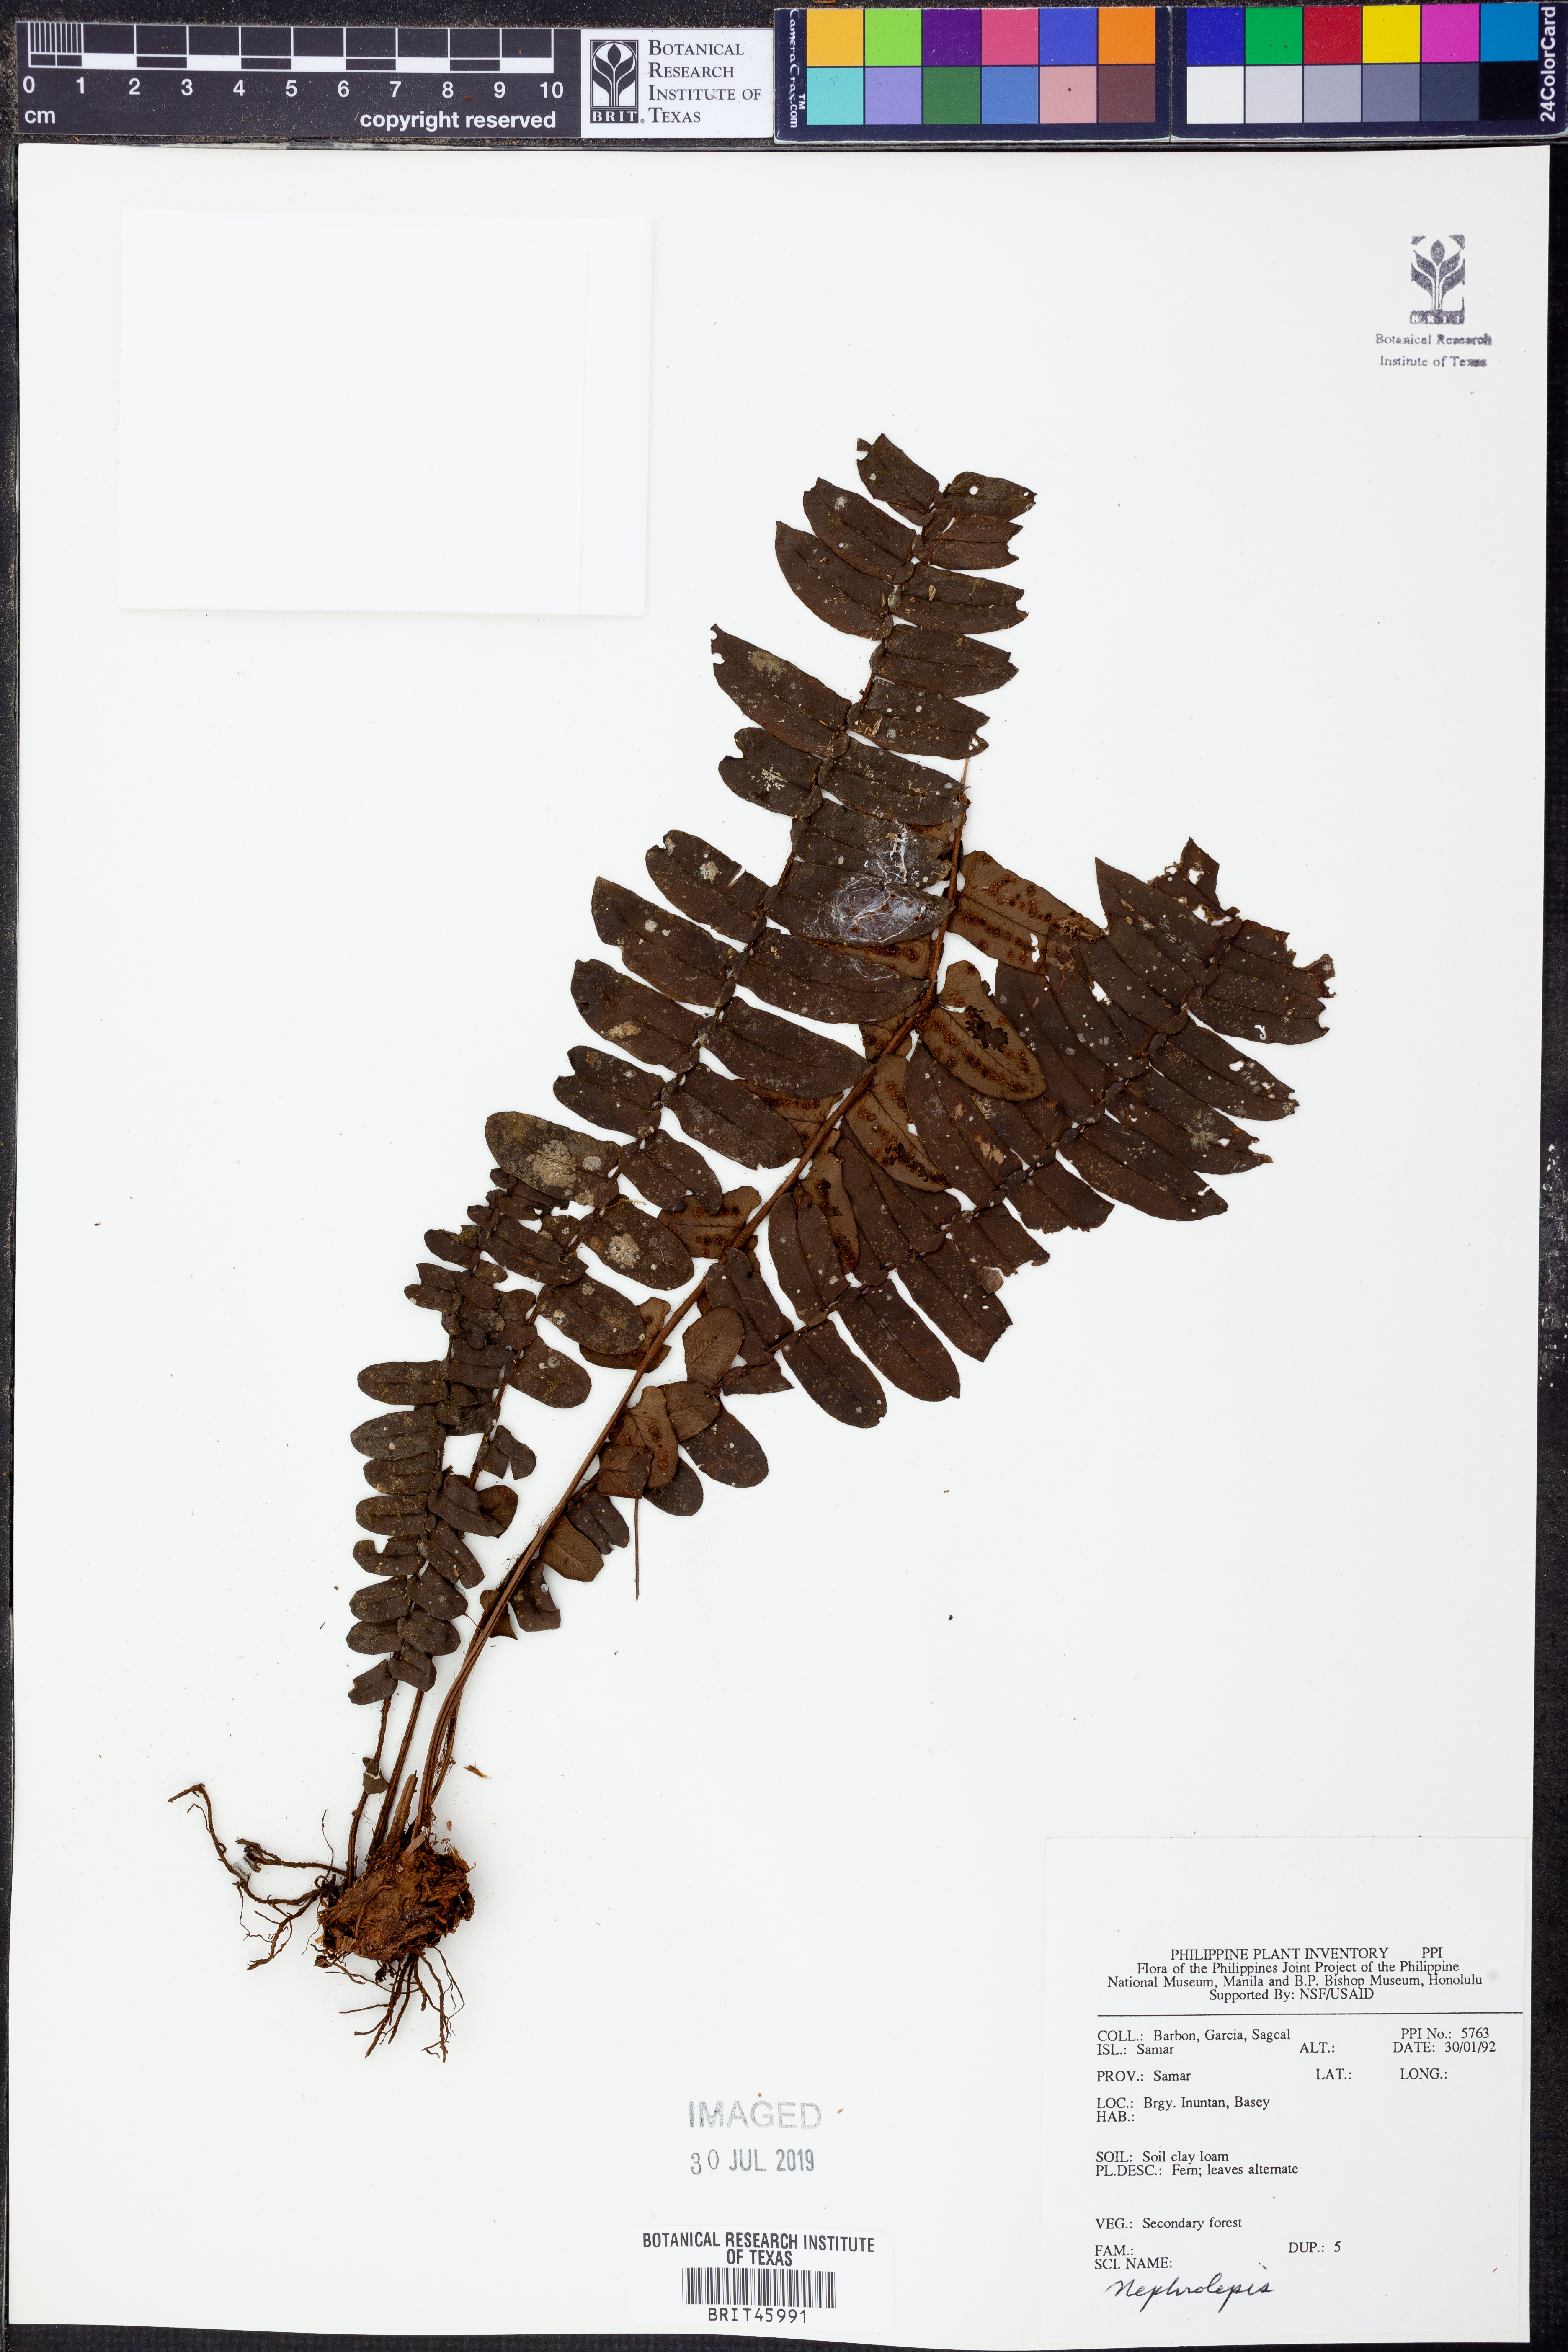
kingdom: Plantae
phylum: Tracheophyta
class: Polypodiopsida
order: Polypodiales
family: Nephrolepidaceae
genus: Nephrolepis
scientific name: Nephrolepis
